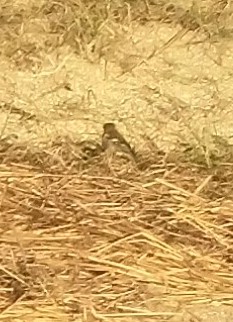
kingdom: Animalia
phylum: Chordata
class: Aves
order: Passeriformes
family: Fringillidae
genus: Fringilla
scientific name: Fringilla coelebs
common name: Bogfinke
